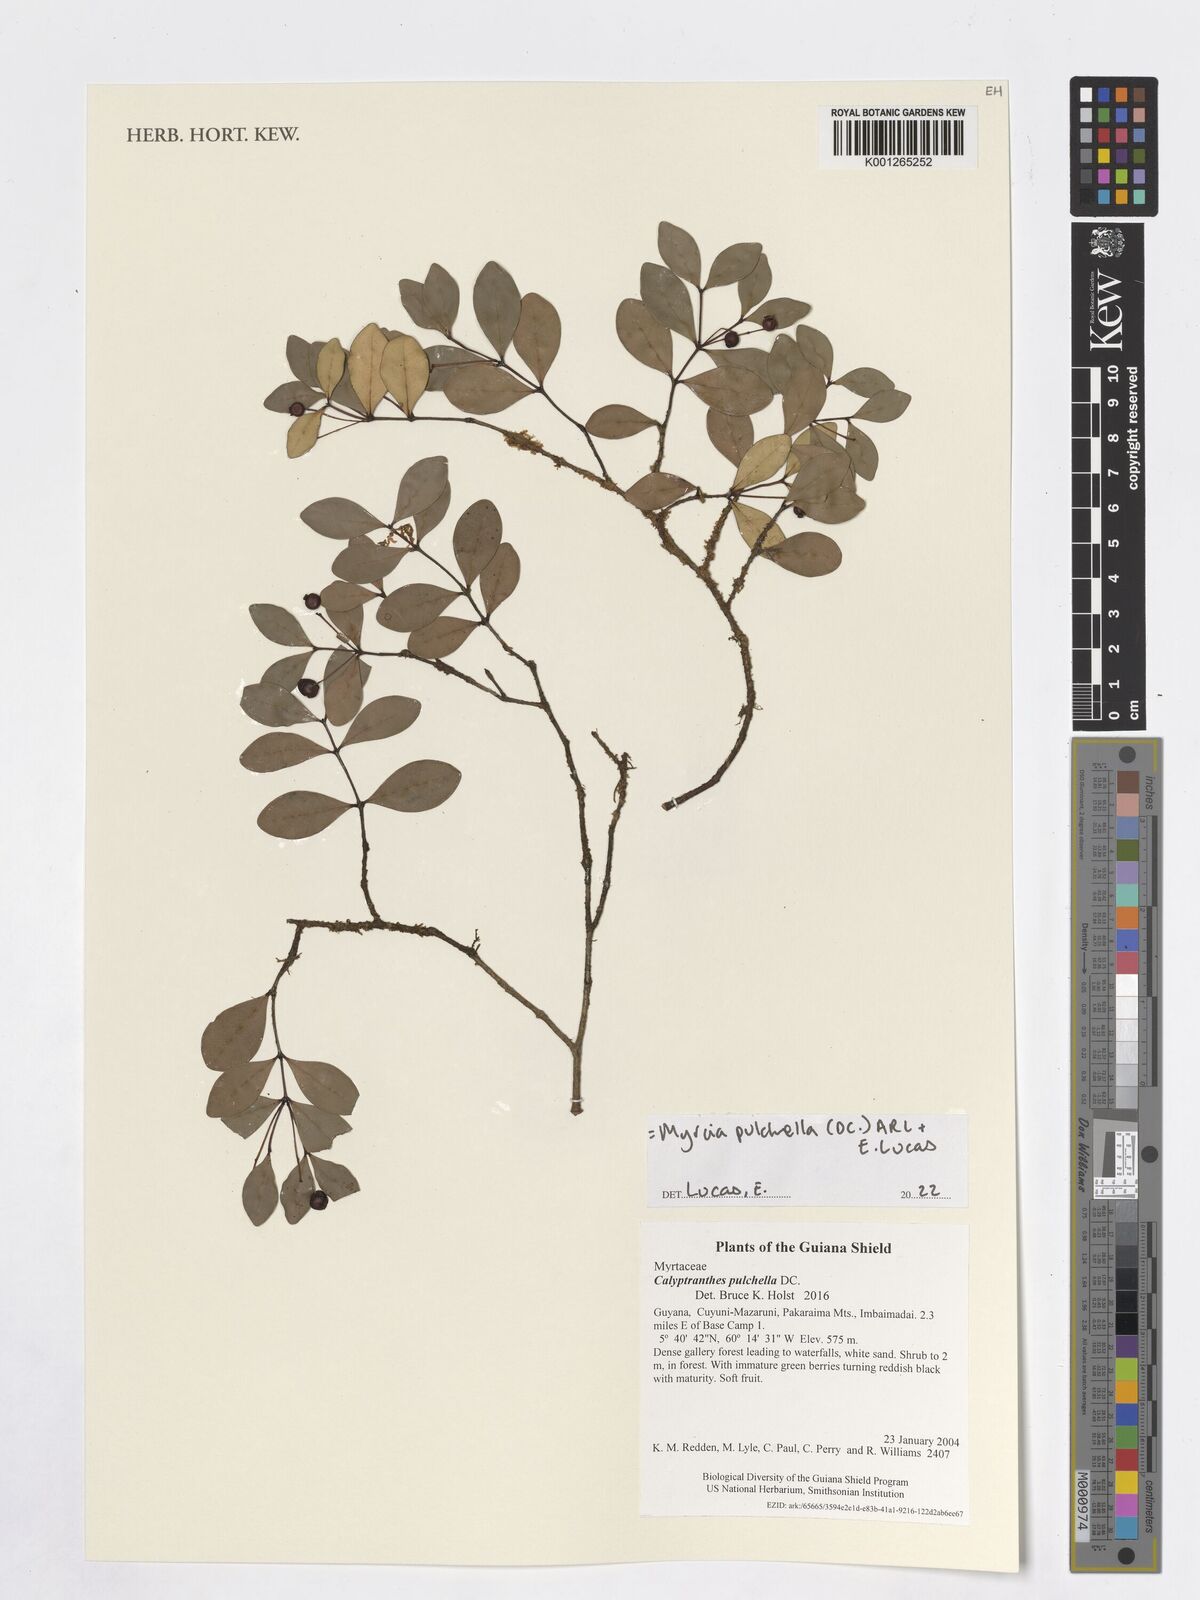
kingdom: Plantae
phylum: Tracheophyta
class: Magnoliopsida
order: Myrtales
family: Myrtaceae
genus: Myrcia
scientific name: Myrcia pulchella
